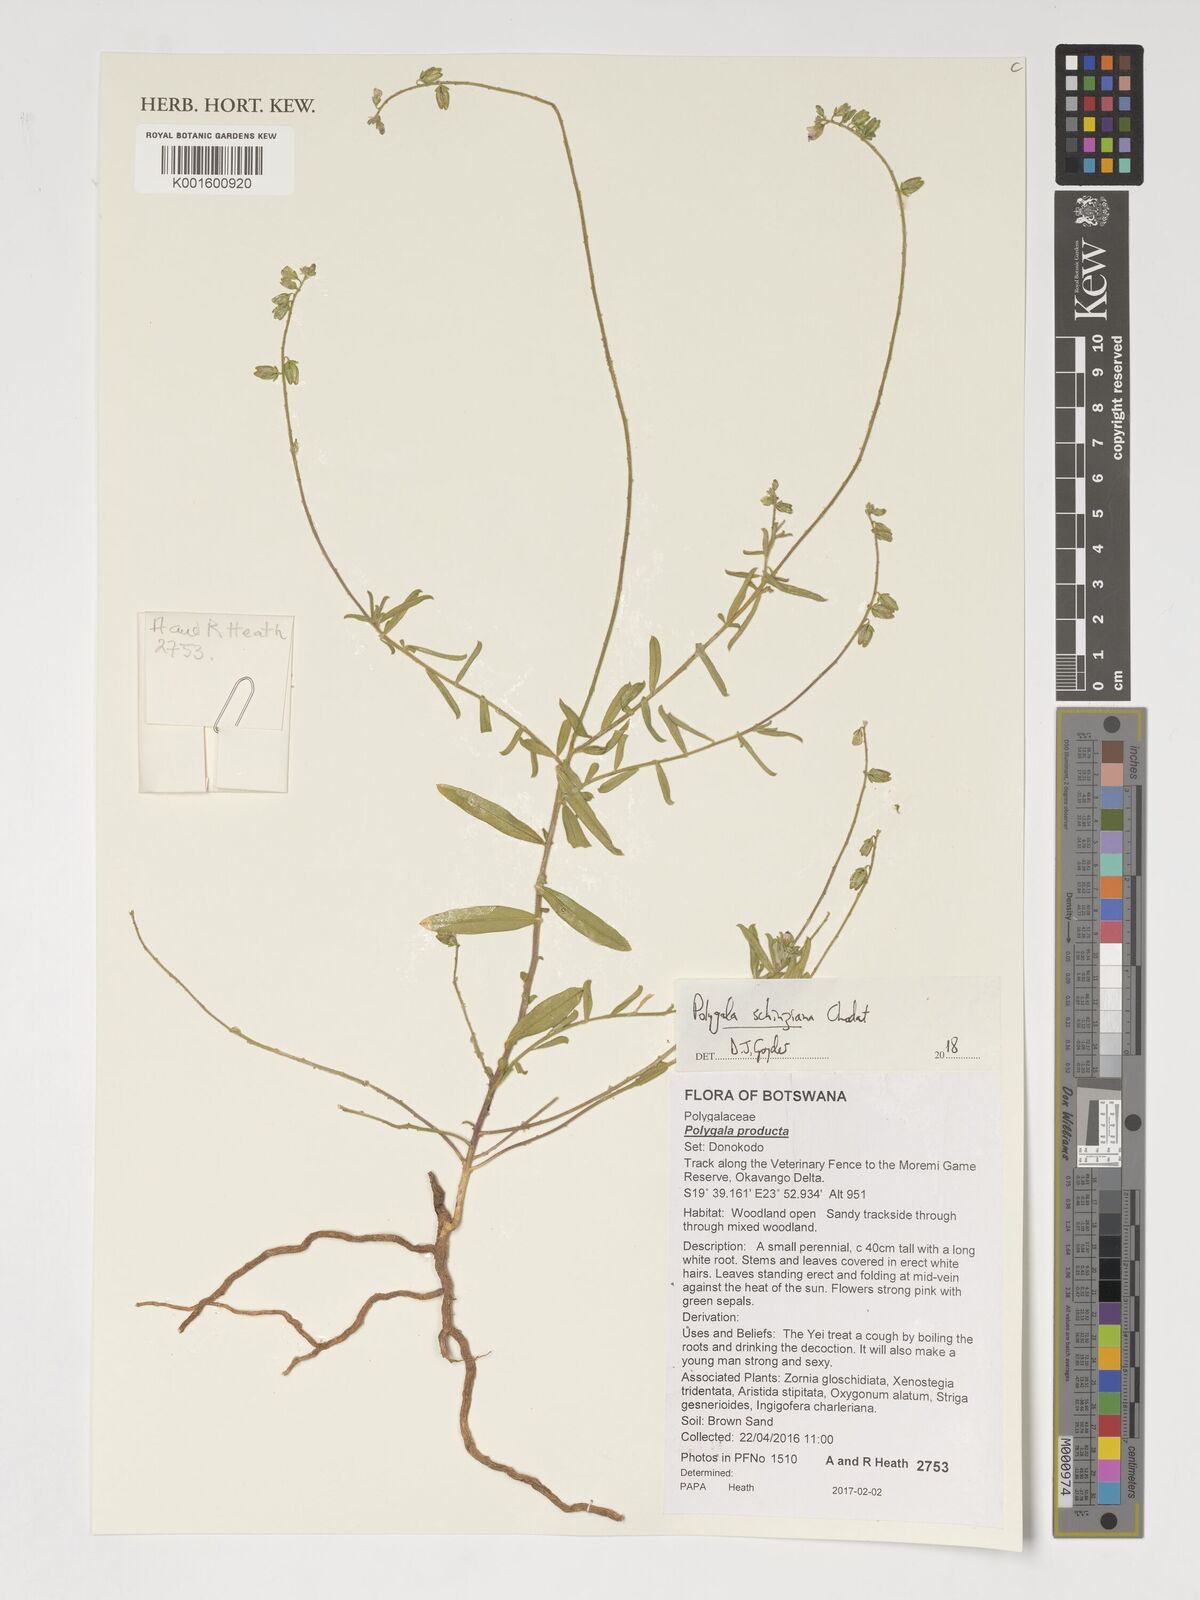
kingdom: Plantae
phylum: Tracheophyta
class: Magnoliopsida
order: Fabales
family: Polygalaceae
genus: Polygala
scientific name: Polygala schinziana
